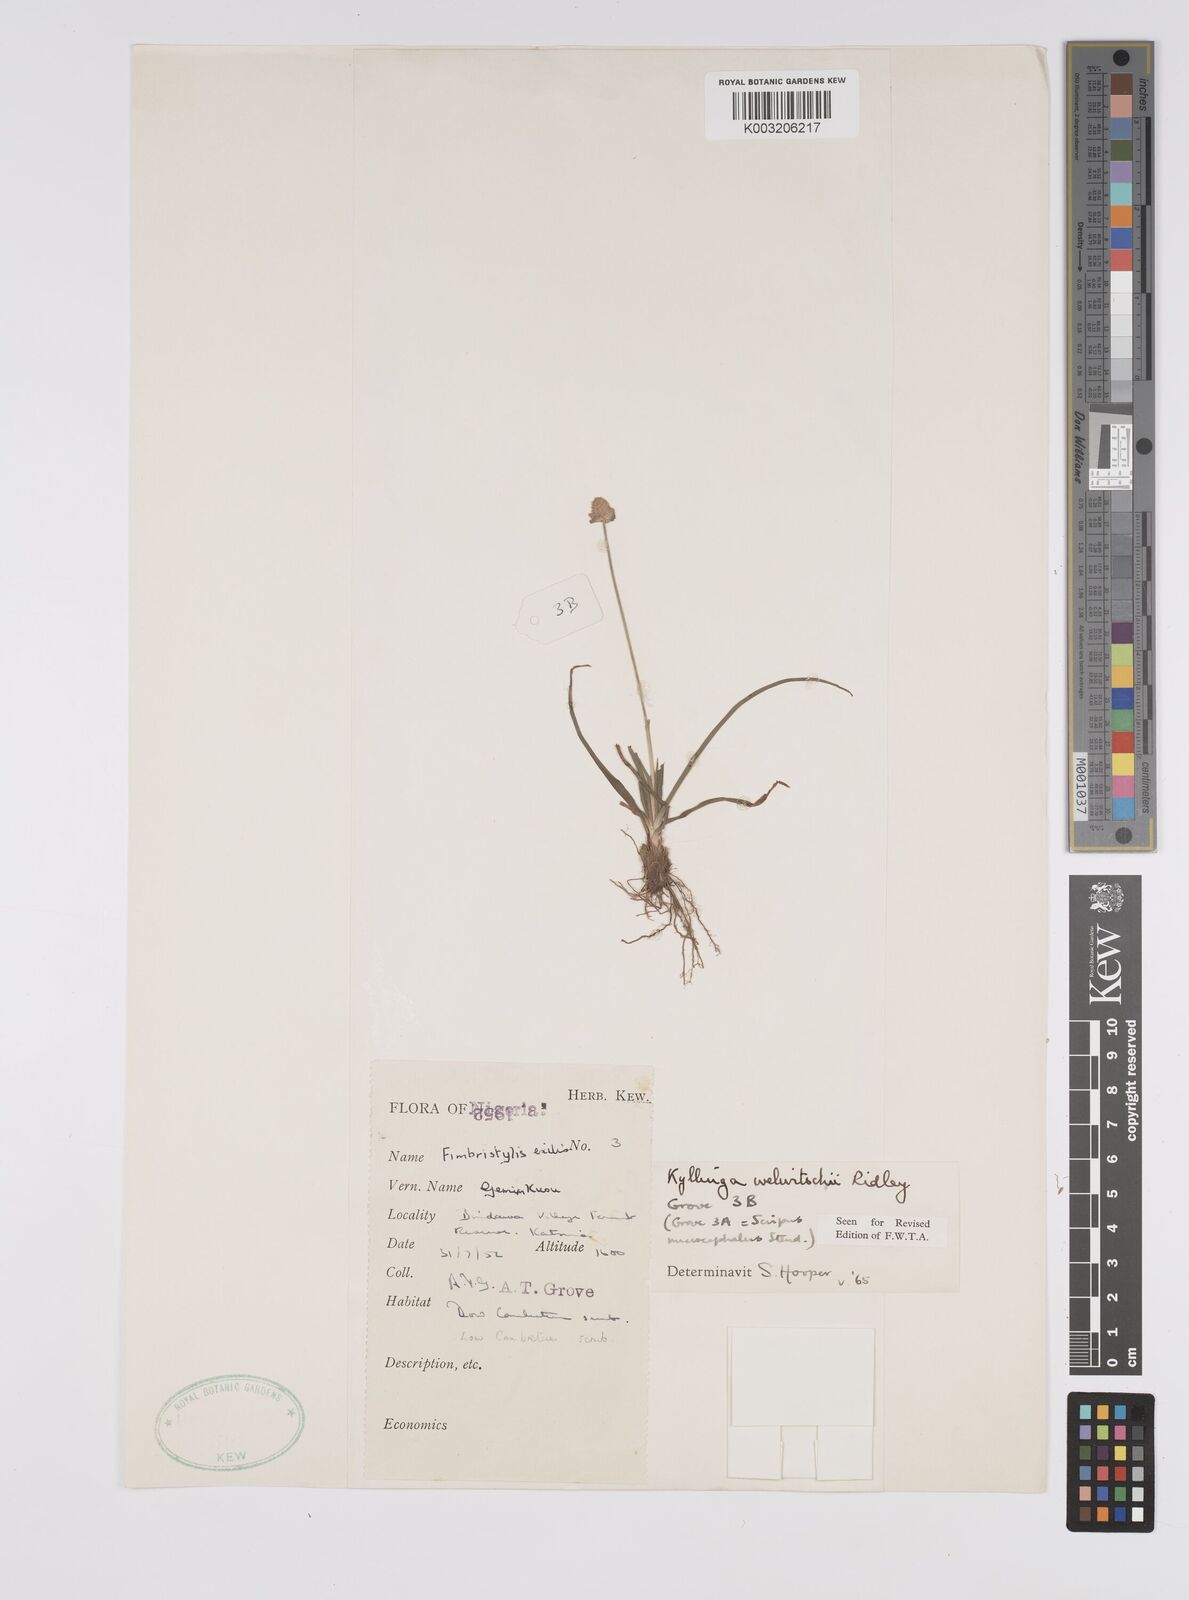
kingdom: Plantae
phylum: Tracheophyta
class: Liliopsida
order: Poales
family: Cyperaceae
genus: Cyperus
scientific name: Cyperus
